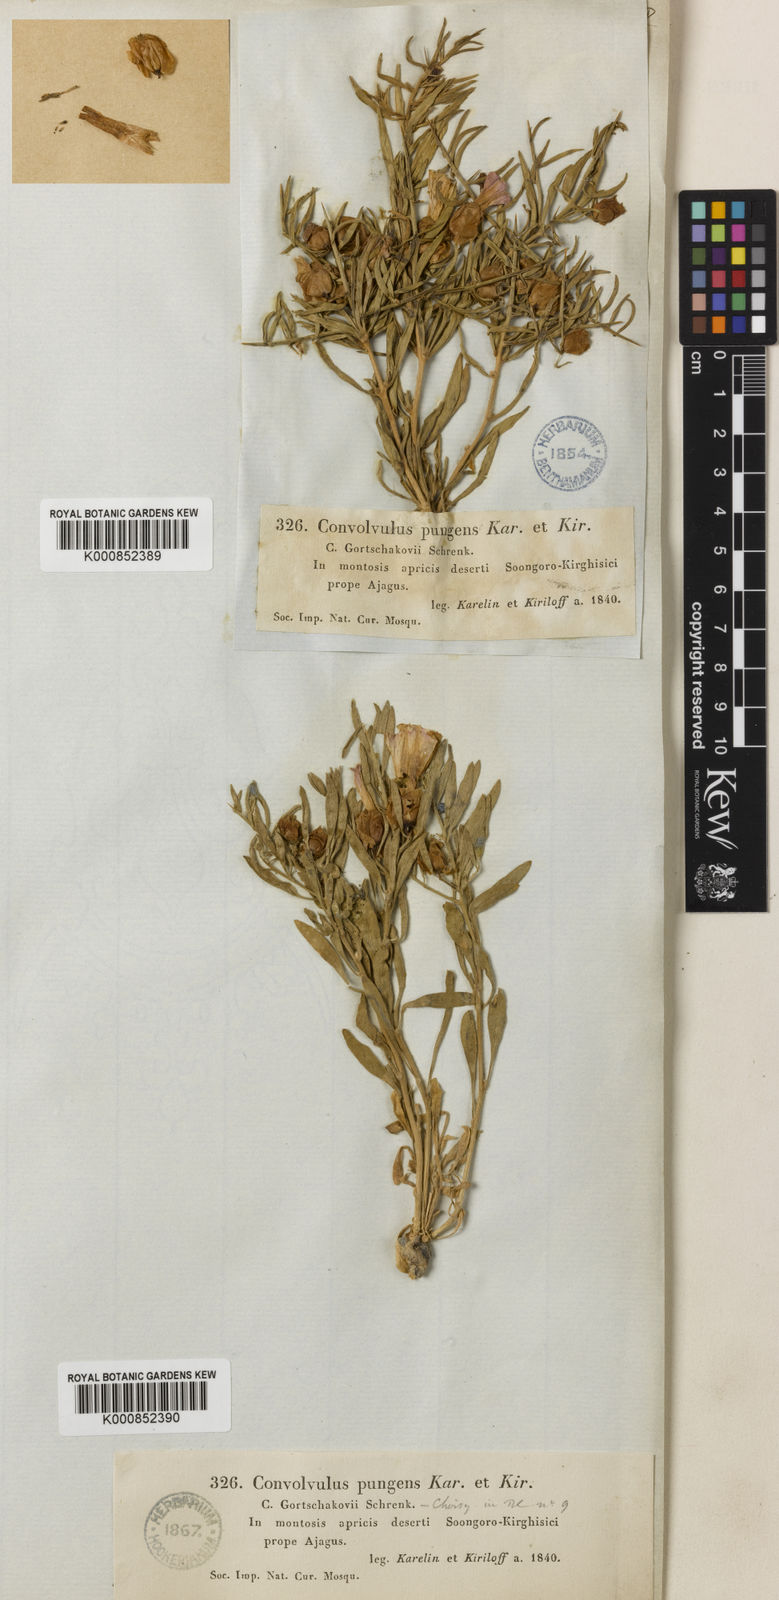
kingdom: Plantae
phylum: Tracheophyta
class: Magnoliopsida
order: Solanales
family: Convolvulaceae
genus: Convolvulus
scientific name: Convolvulus
